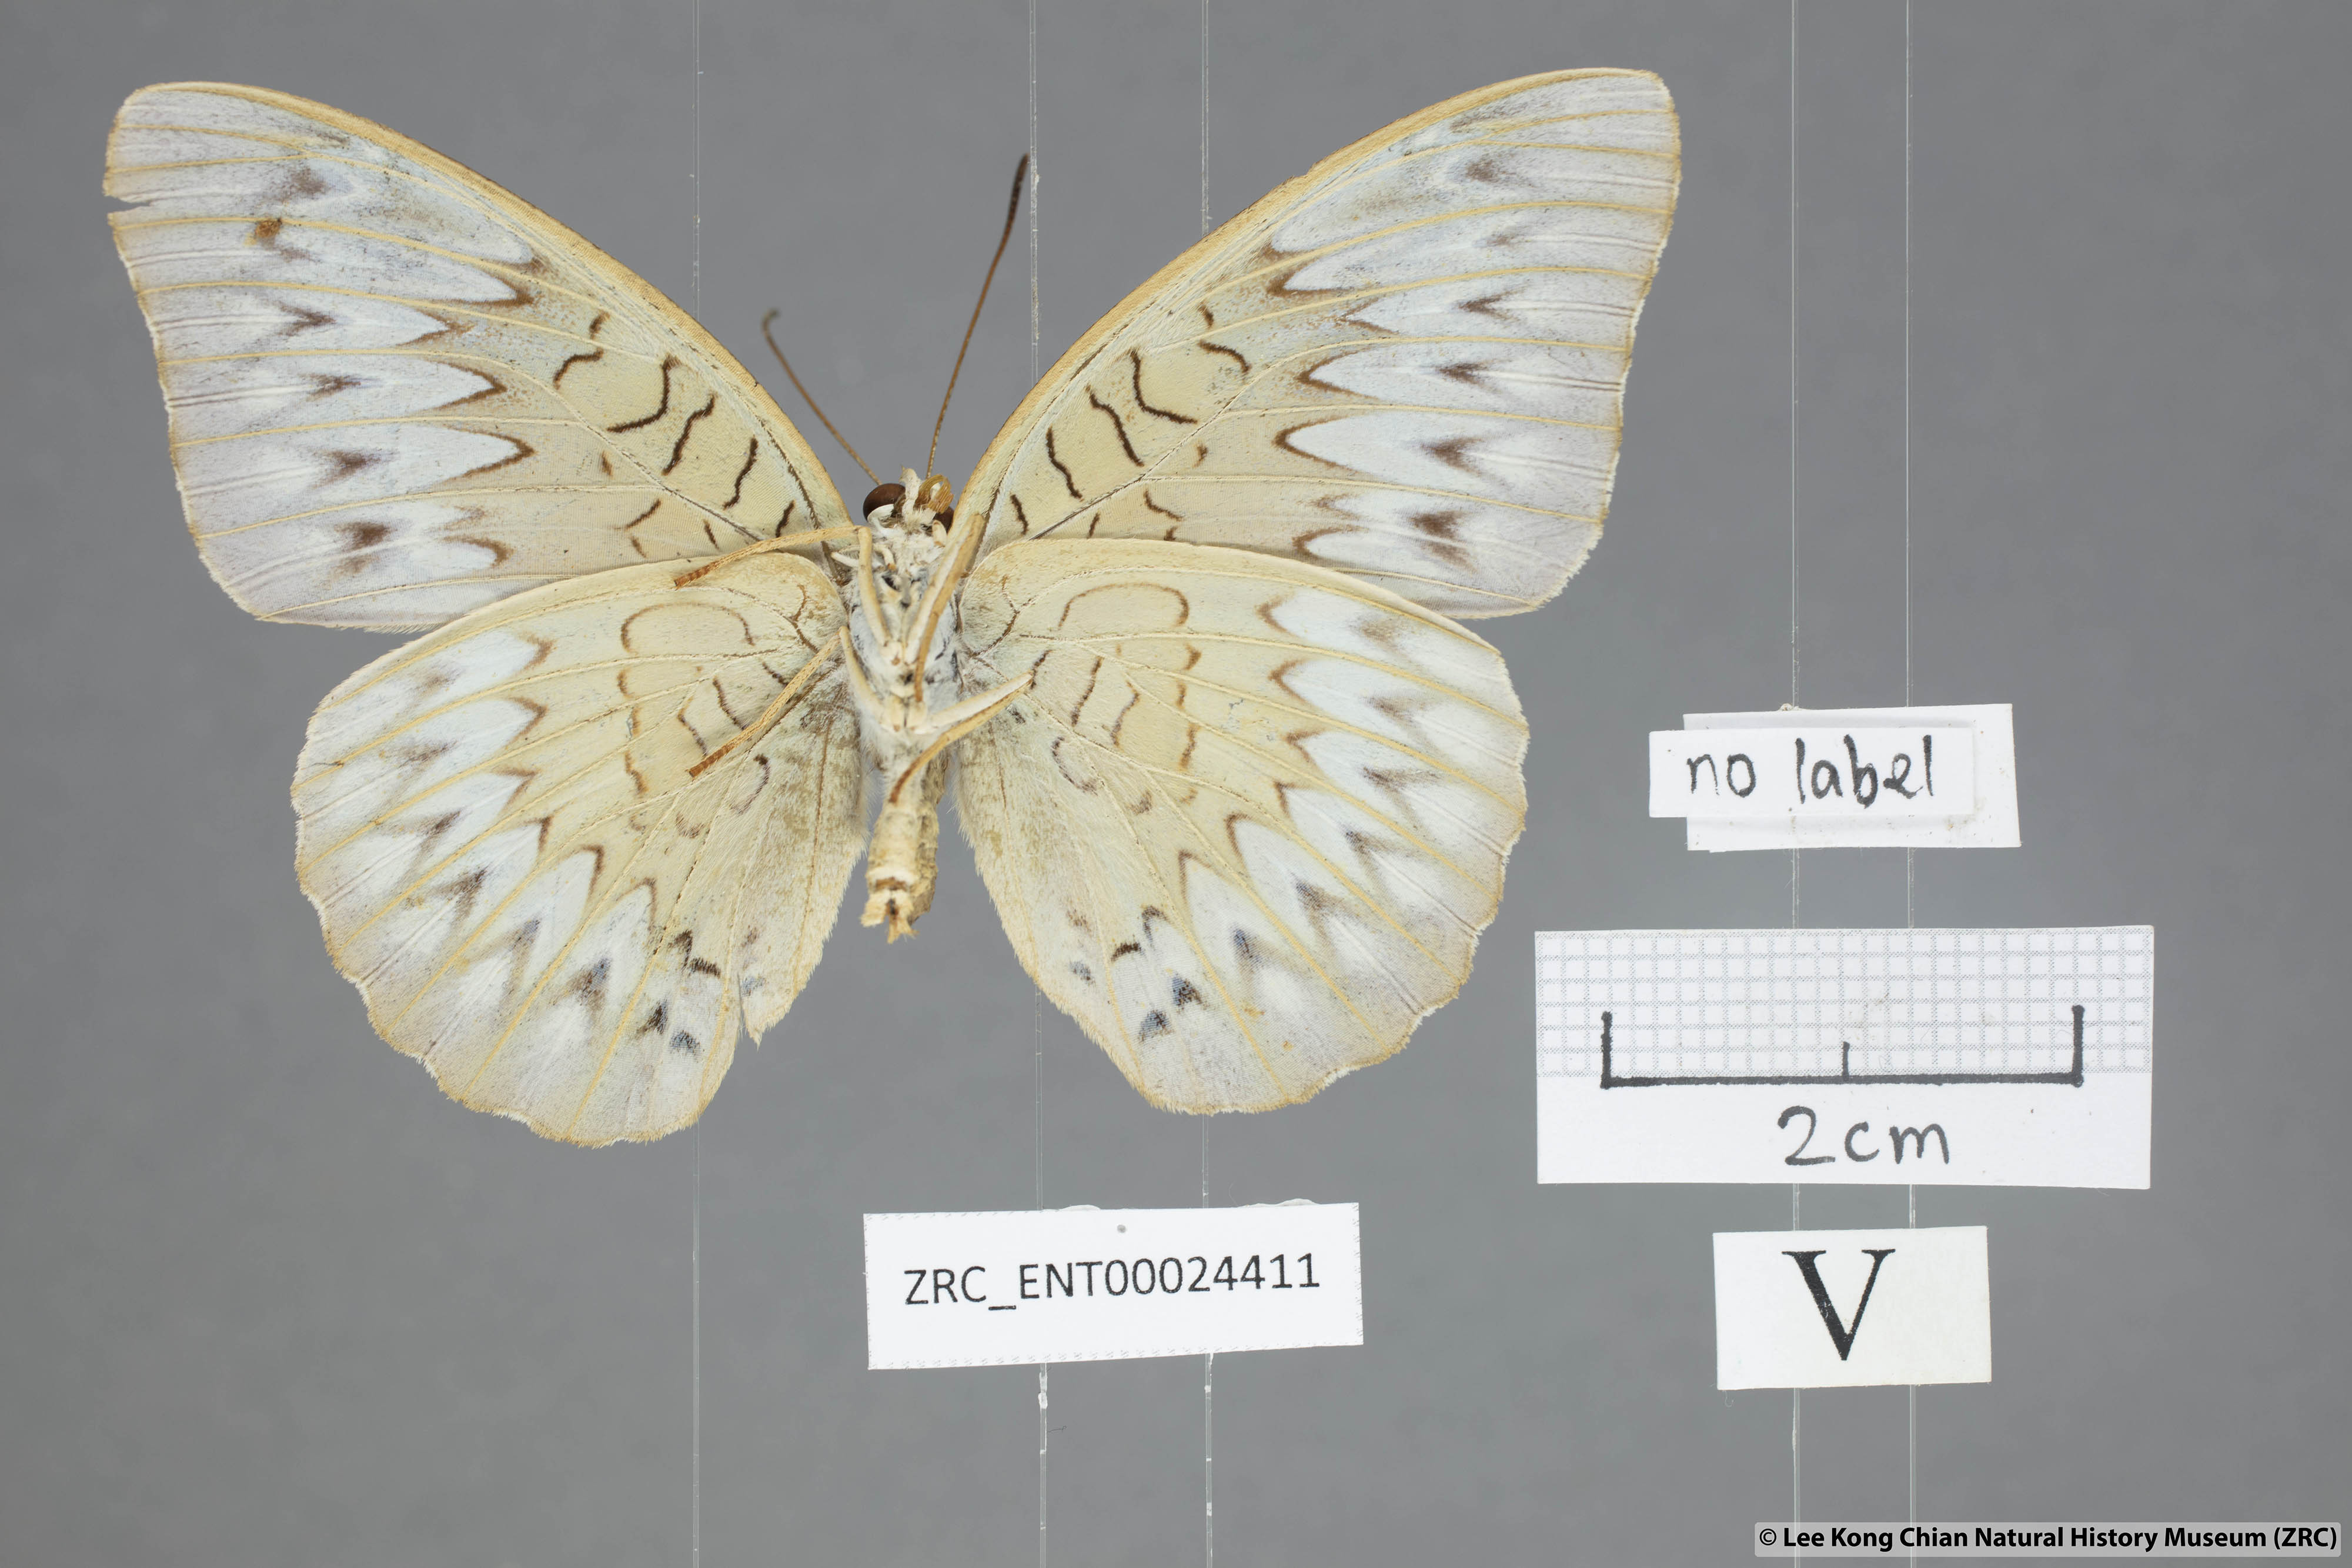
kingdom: Animalia
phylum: Arthropoda
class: Insecta
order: Lepidoptera
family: Nymphalidae
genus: Tanaecia
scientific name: Tanaecia pelea
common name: Malay viscount
